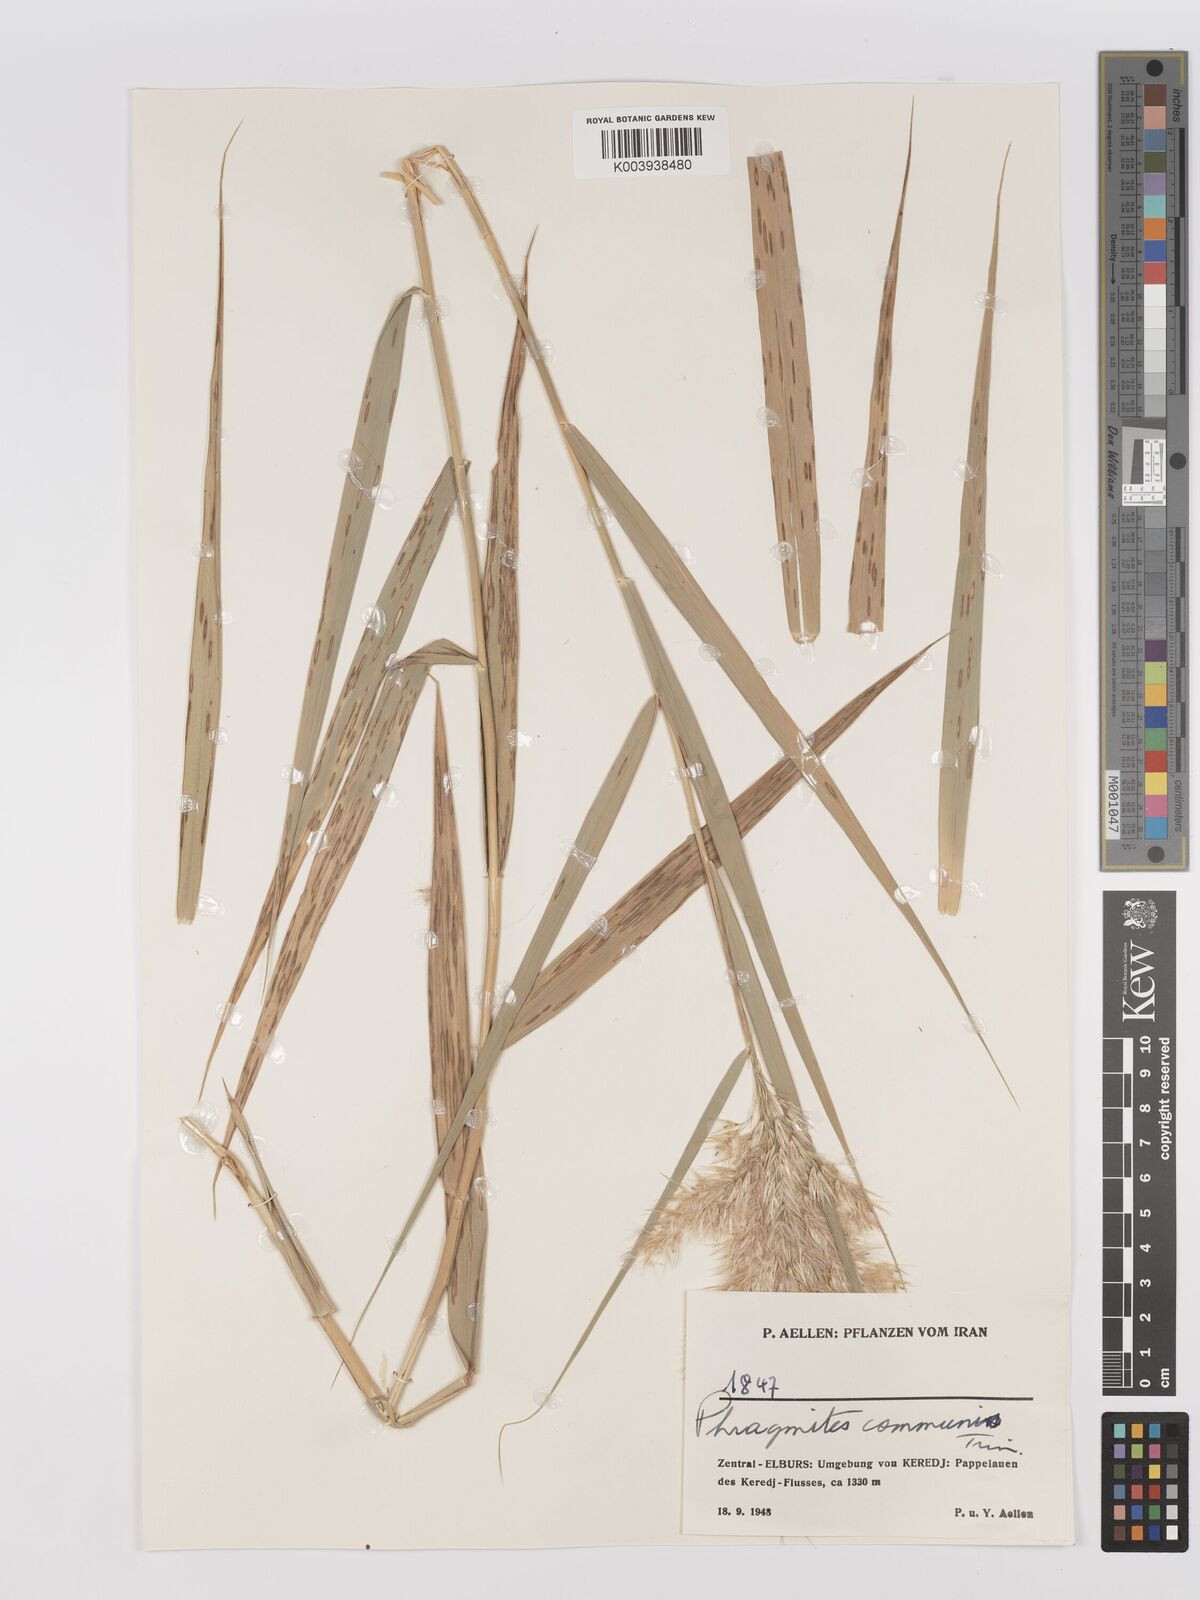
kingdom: Plantae
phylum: Tracheophyta
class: Liliopsida
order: Poales
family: Poaceae
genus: Phragmites
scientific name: Phragmites australis
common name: Common reed
